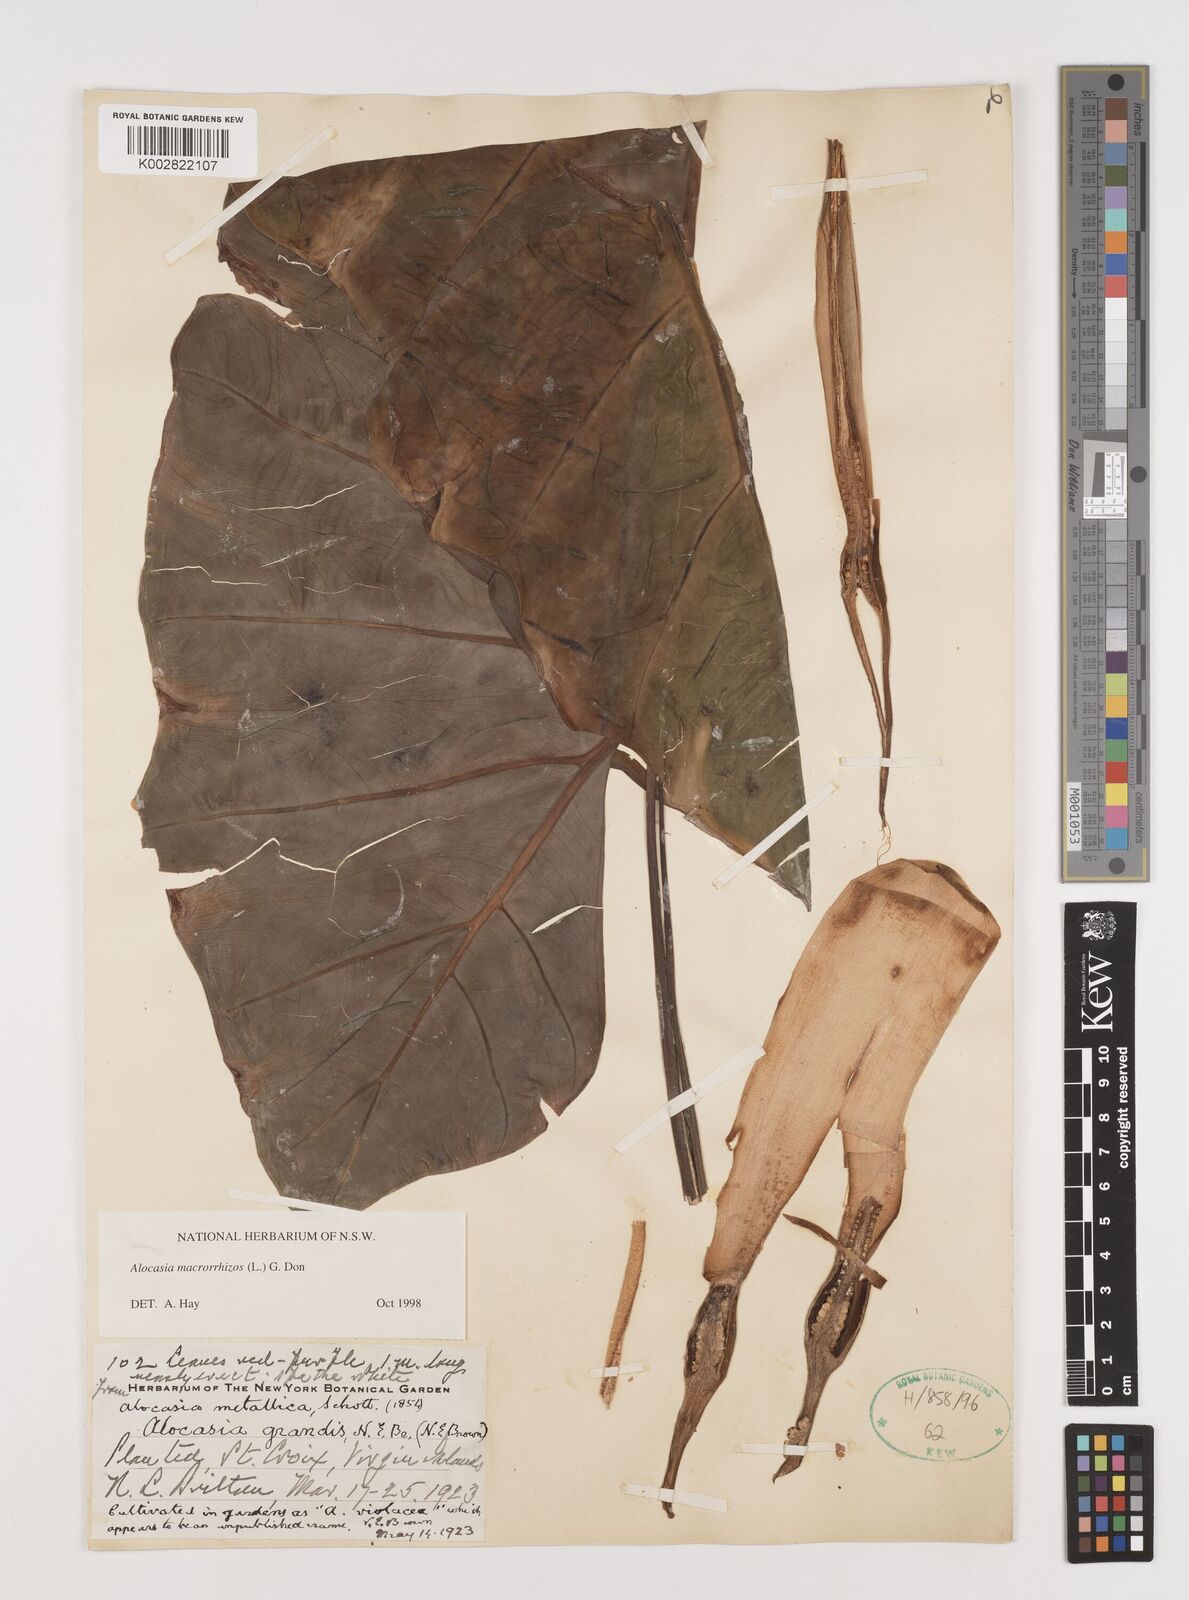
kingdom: Plantae
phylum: Tracheophyta
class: Liliopsida
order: Alismatales
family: Araceae
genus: Alocasia
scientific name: Alocasia macrorrhizos
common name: Giant taro
